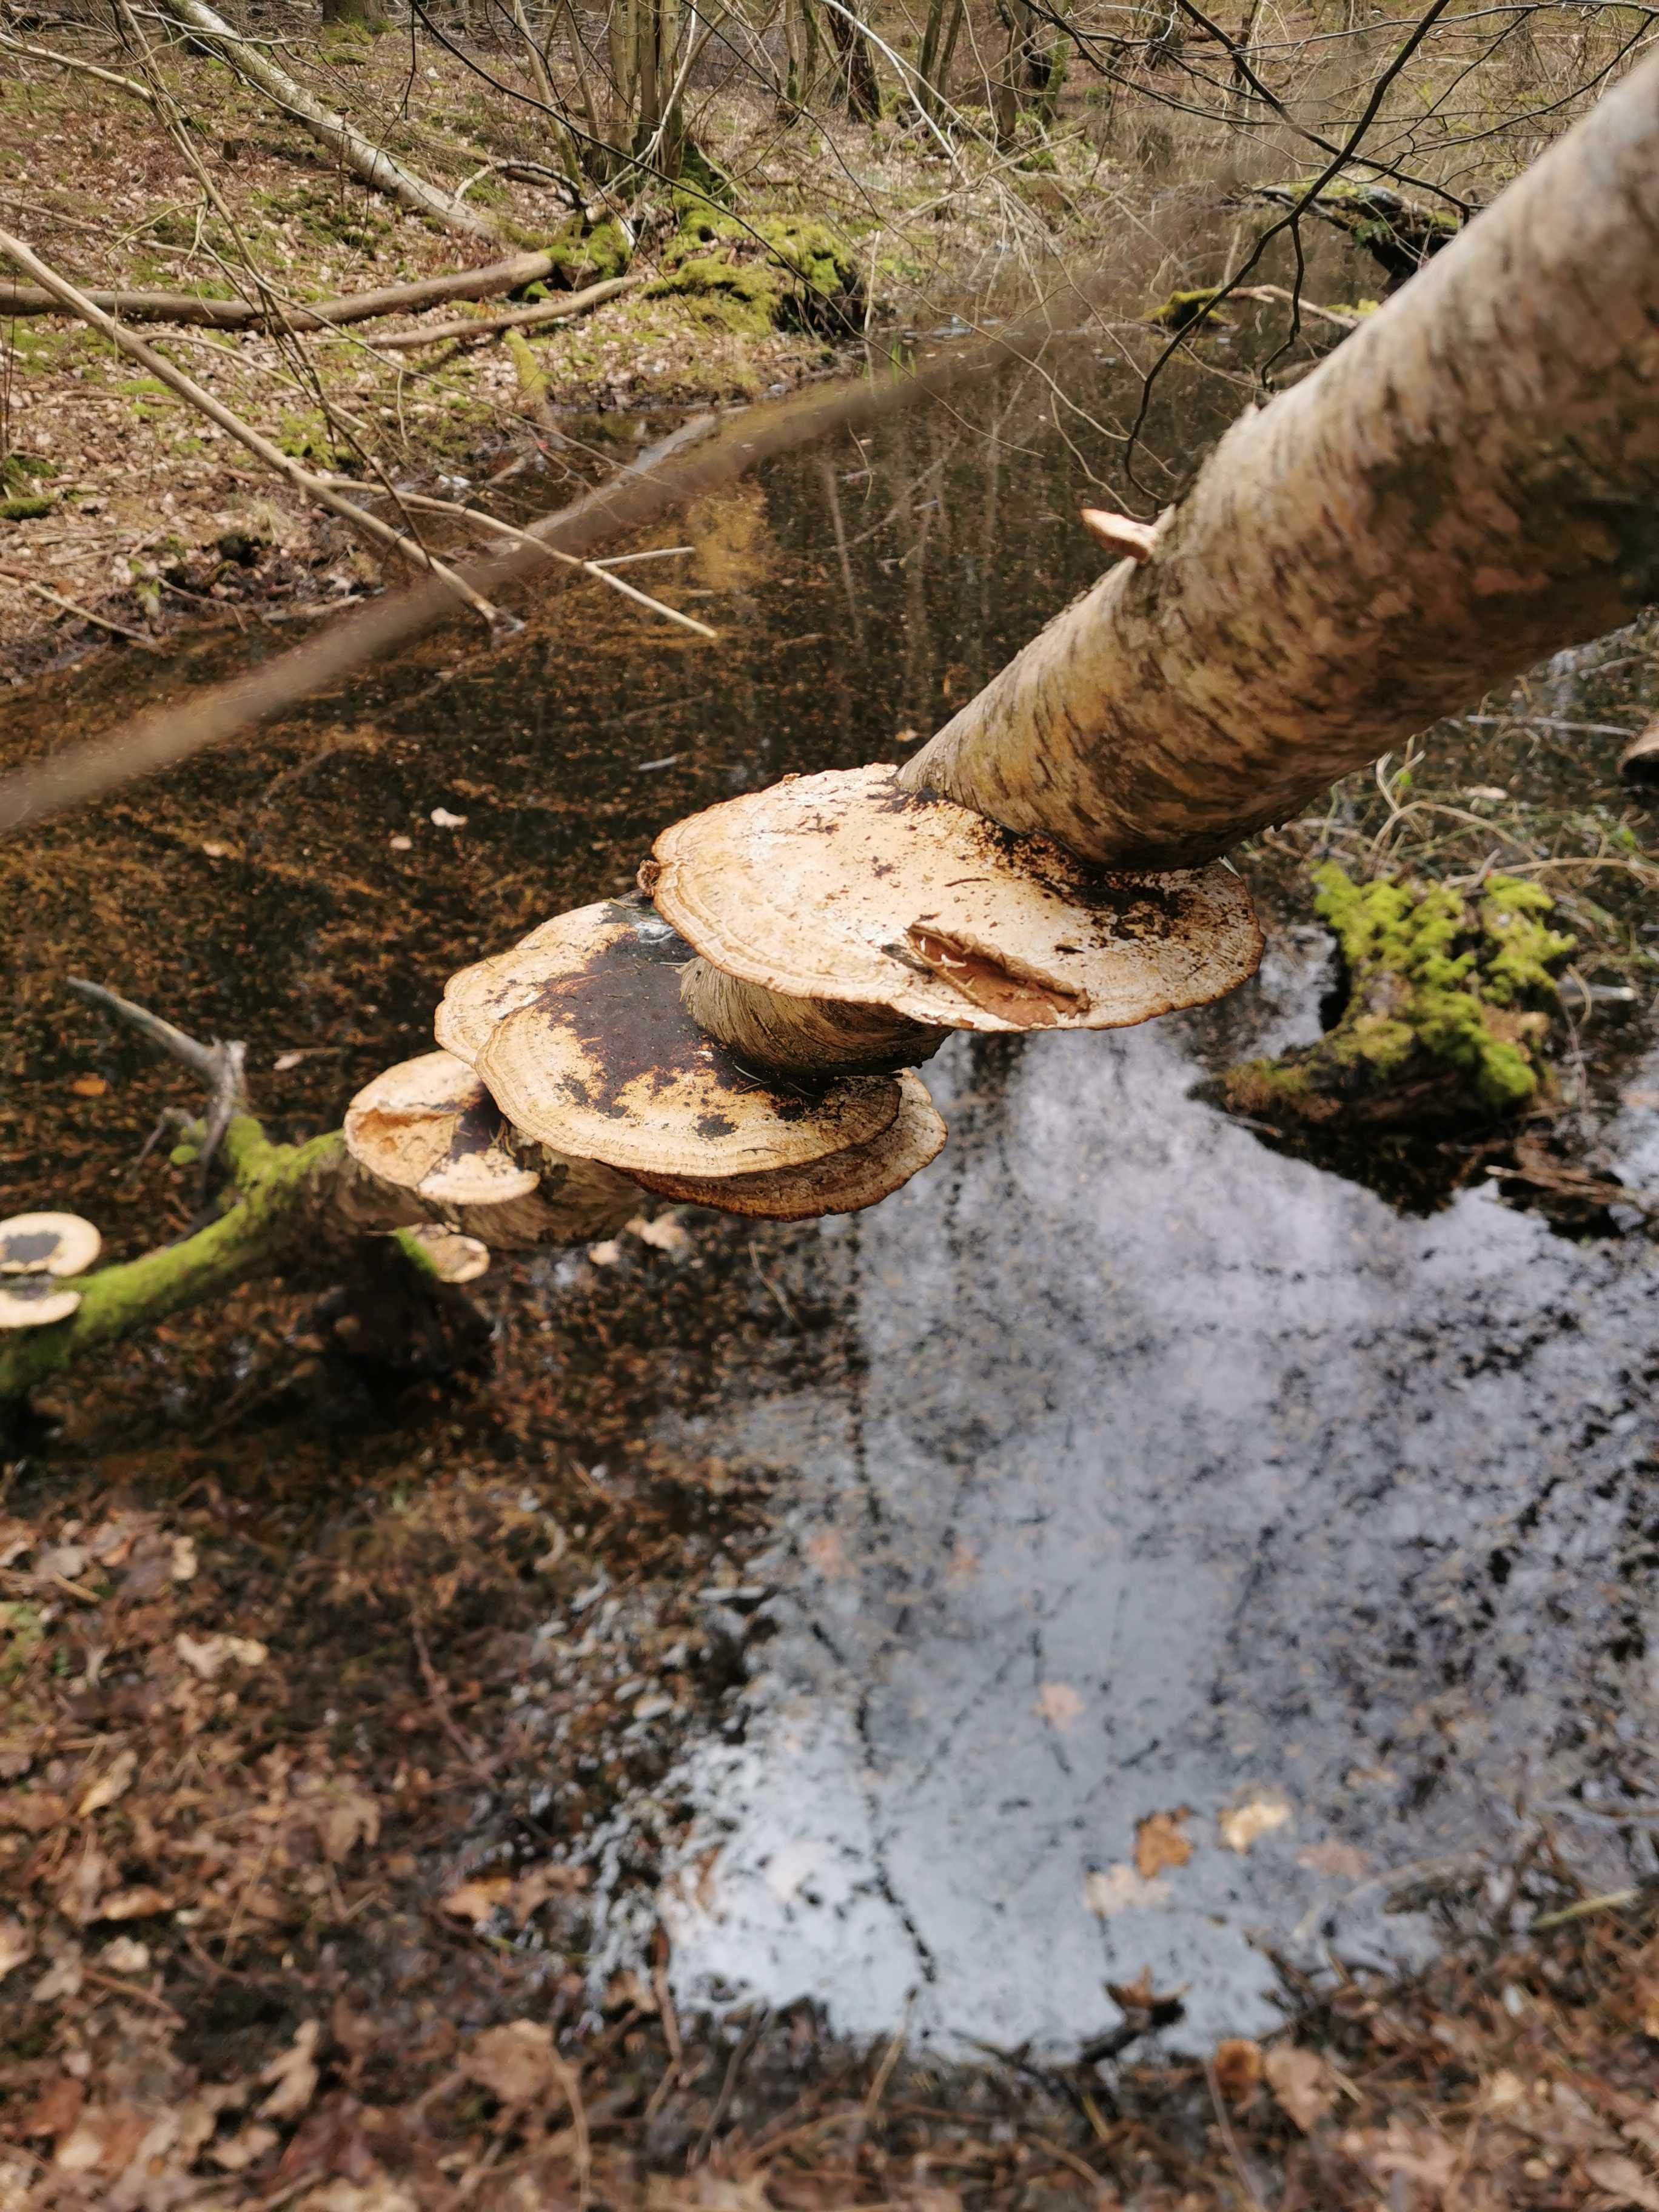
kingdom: Fungi
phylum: Basidiomycota
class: Agaricomycetes
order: Polyporales
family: Polyporaceae
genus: Daedaleopsis
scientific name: Daedaleopsis confragosa
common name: rødmende læderporesvamp
